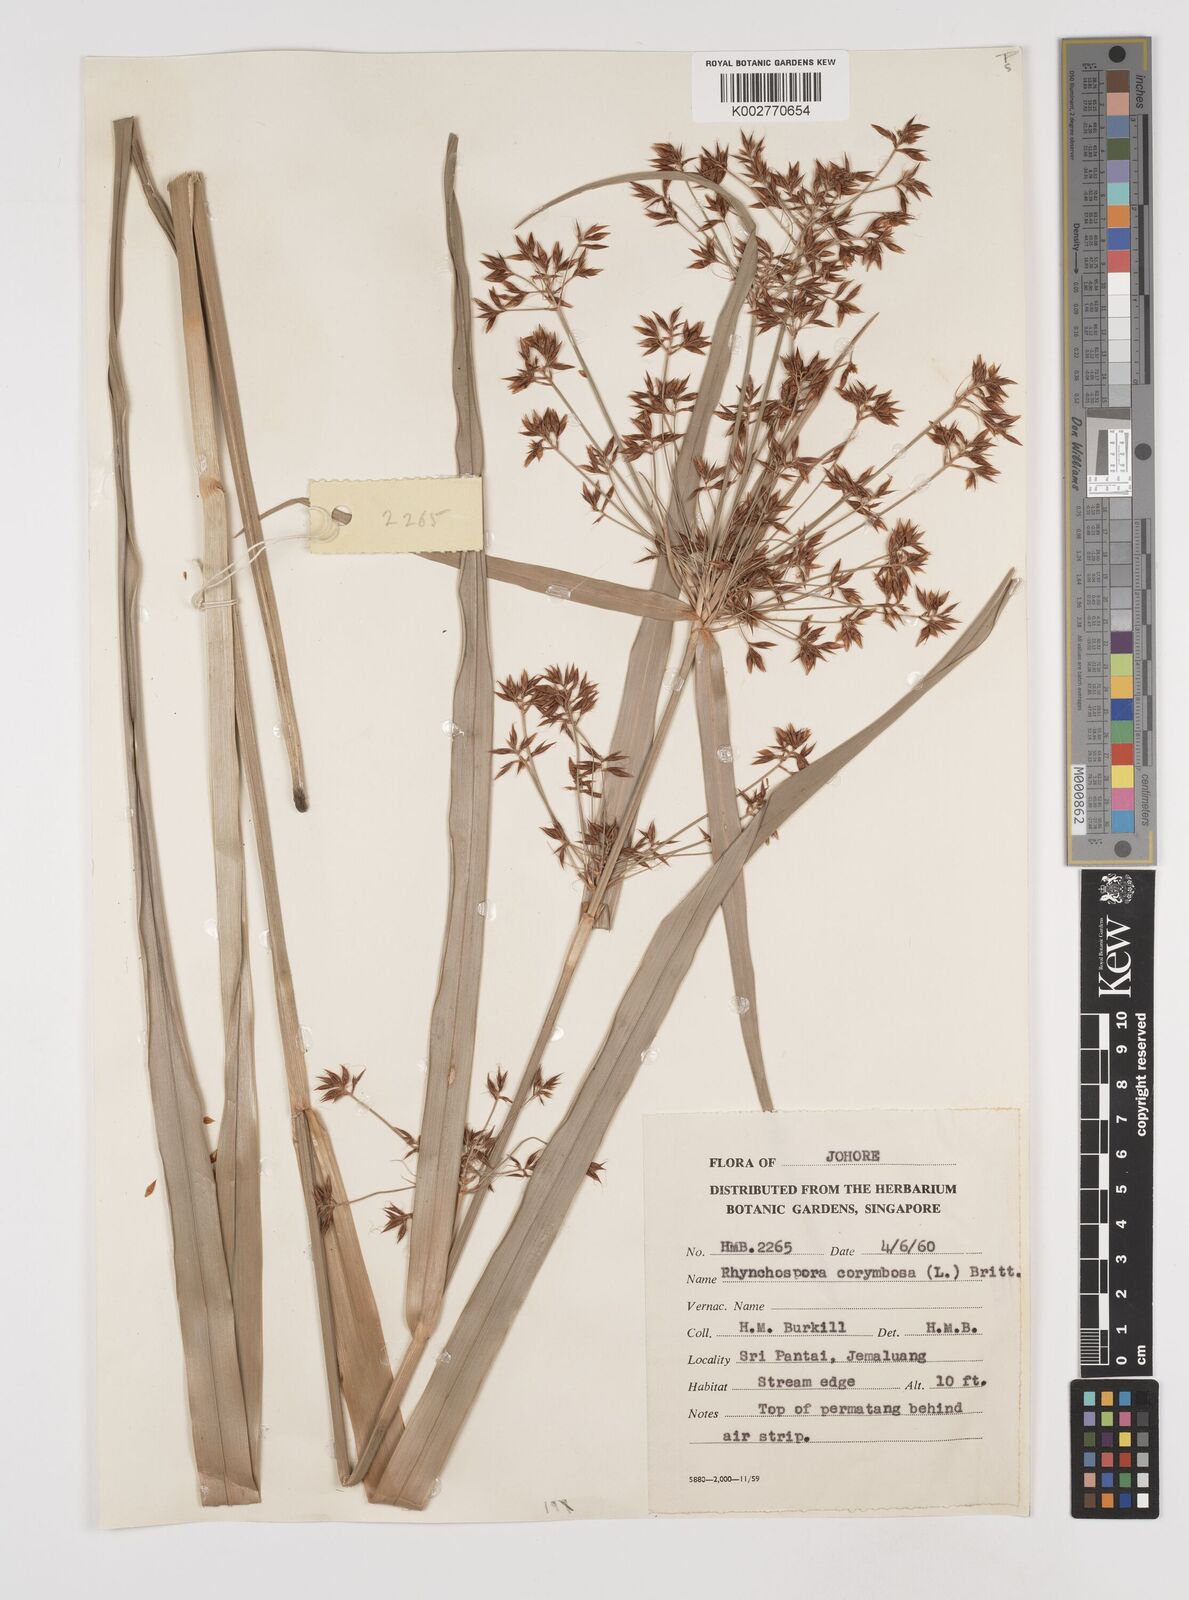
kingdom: Plantae
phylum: Tracheophyta
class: Liliopsida
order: Poales
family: Cyperaceae
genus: Rhynchospora
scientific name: Rhynchospora corymbosa
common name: Golden beak sedge
